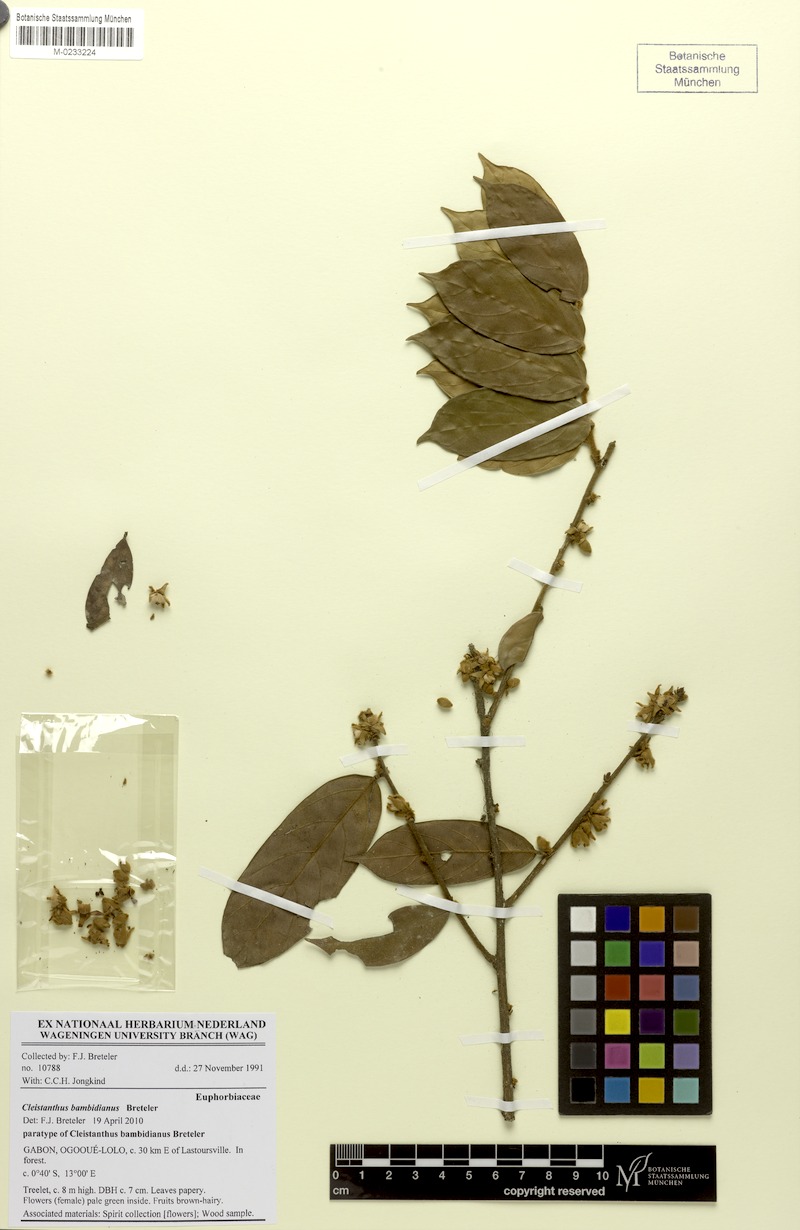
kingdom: Plantae
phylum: Tracheophyta
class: Magnoliopsida
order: Malpighiales
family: Phyllanthaceae
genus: Cleistanthus
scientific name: Cleistanthus bambidianus
